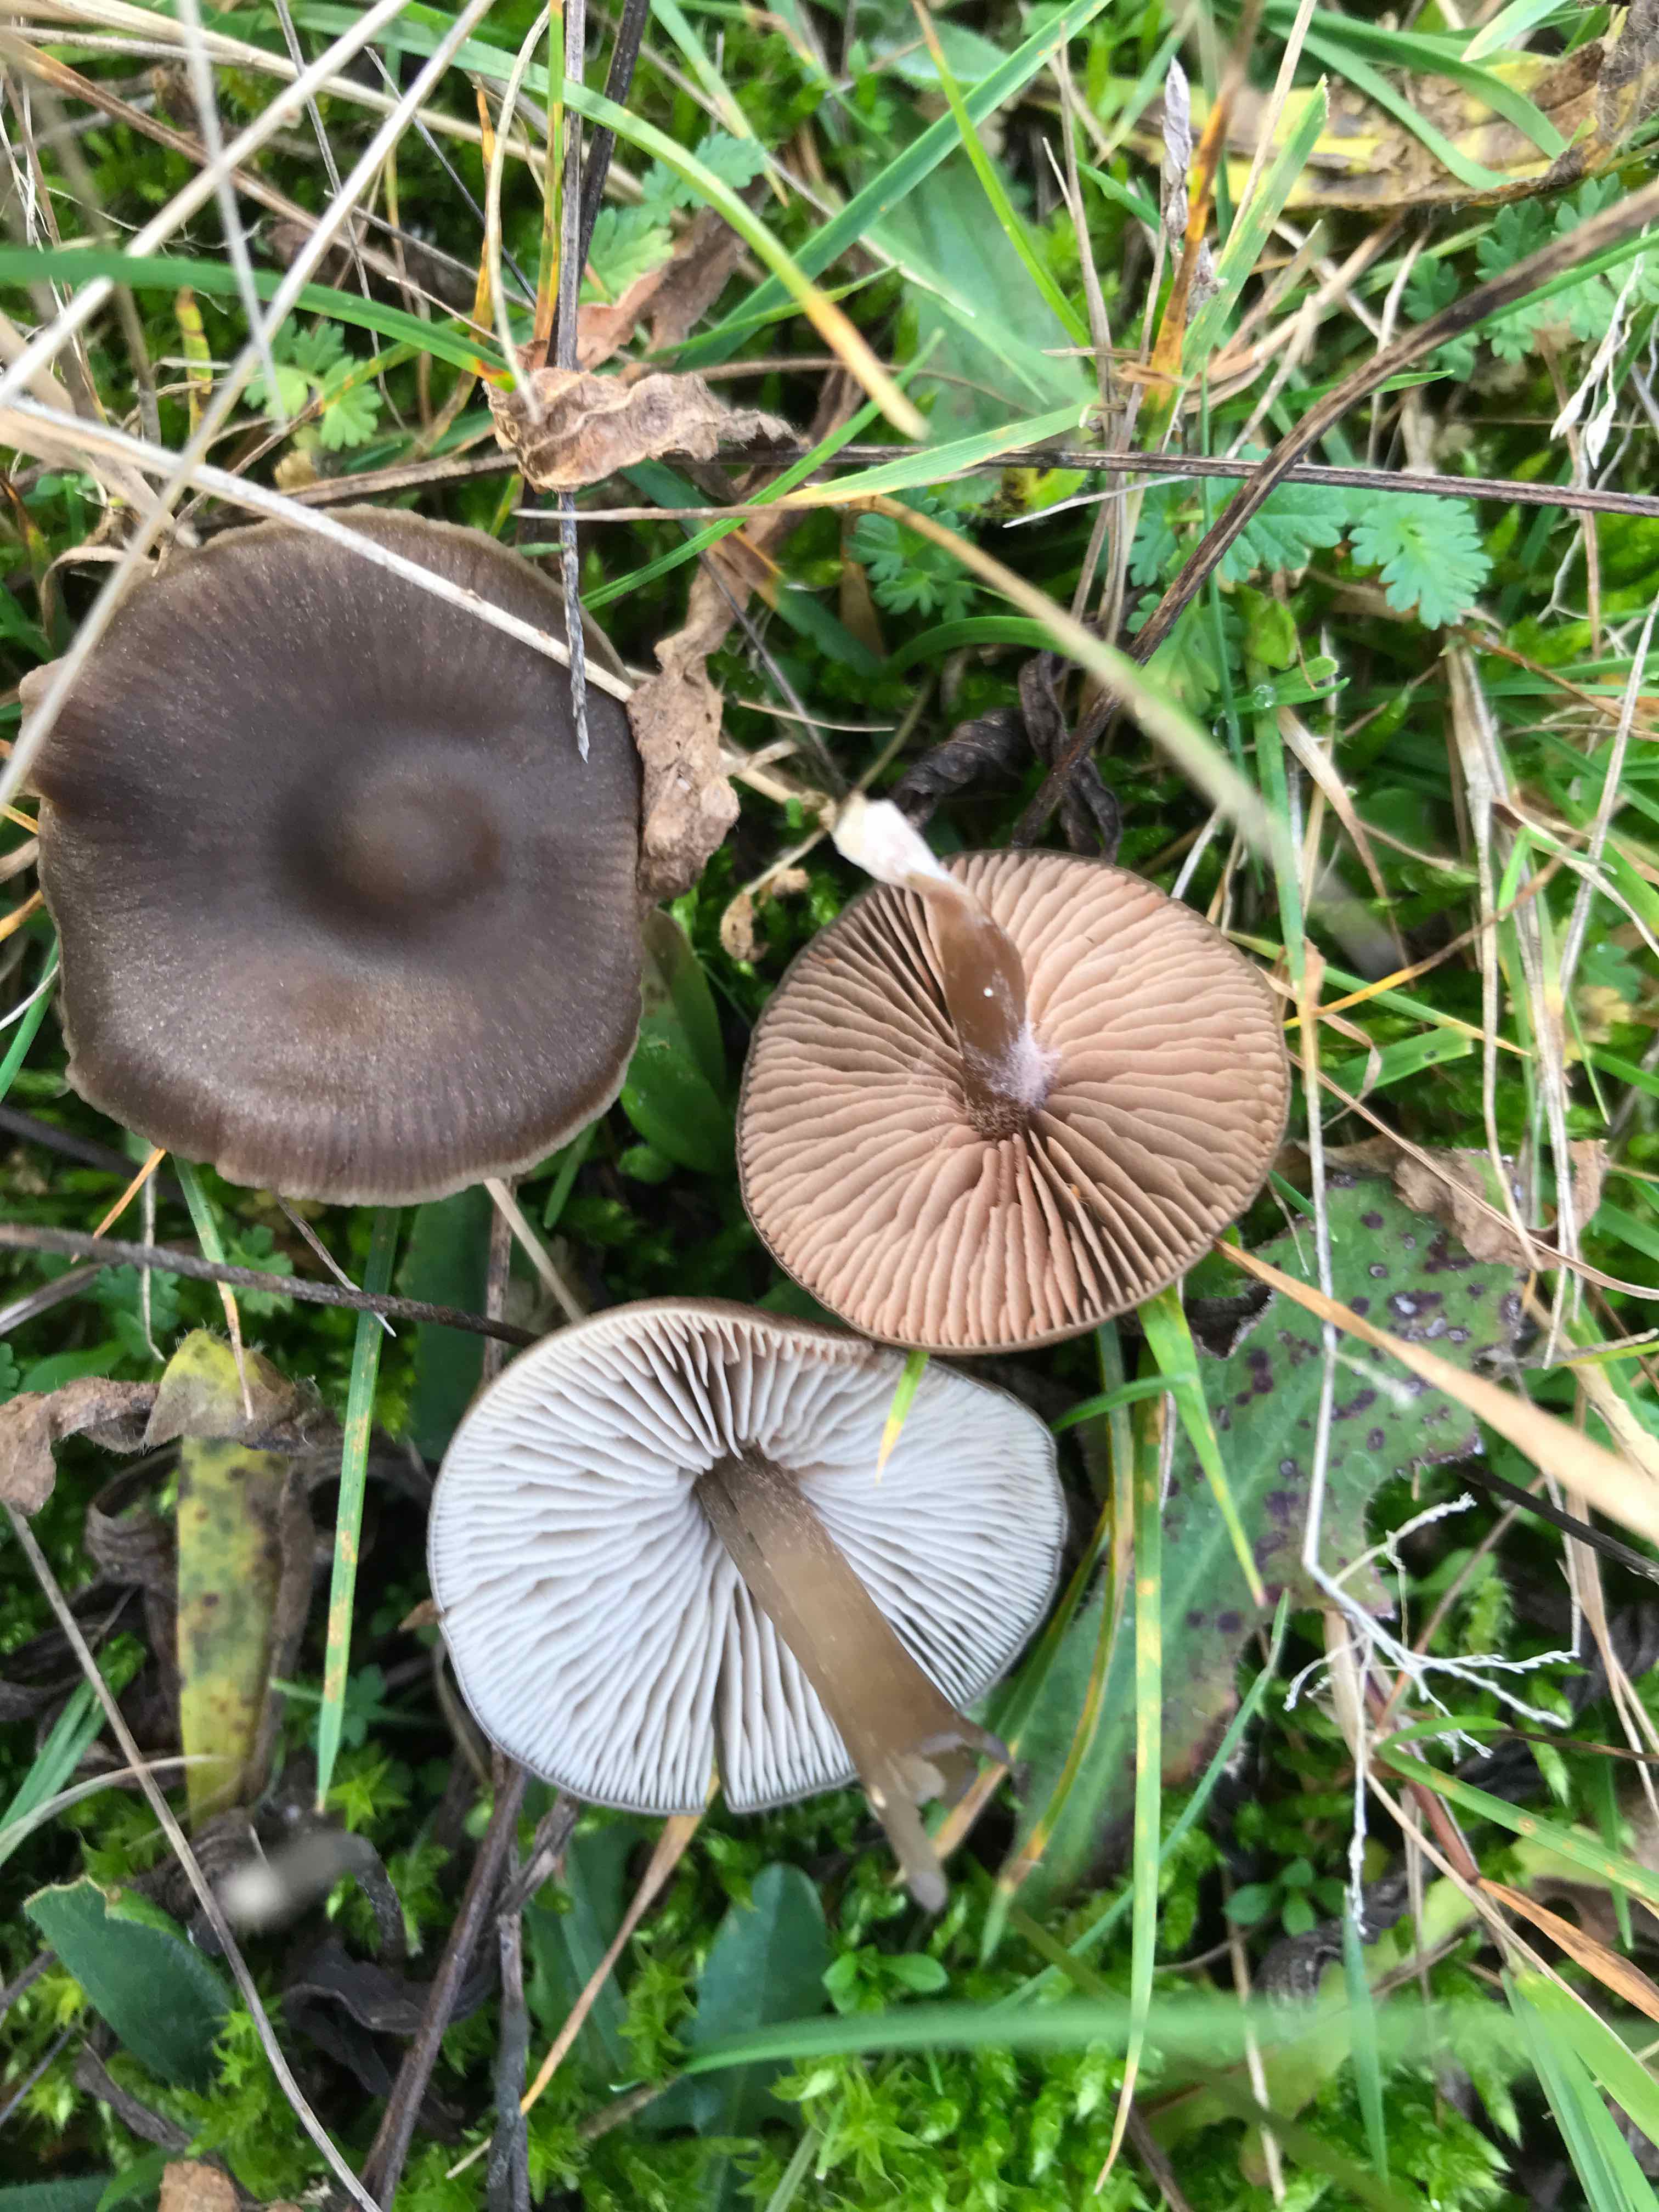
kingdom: Fungi
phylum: Basidiomycota
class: Agaricomycetes
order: Agaricales
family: Entolomataceae
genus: Entoloma
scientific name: Entoloma sericeum
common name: silkeglinsende rødblad
